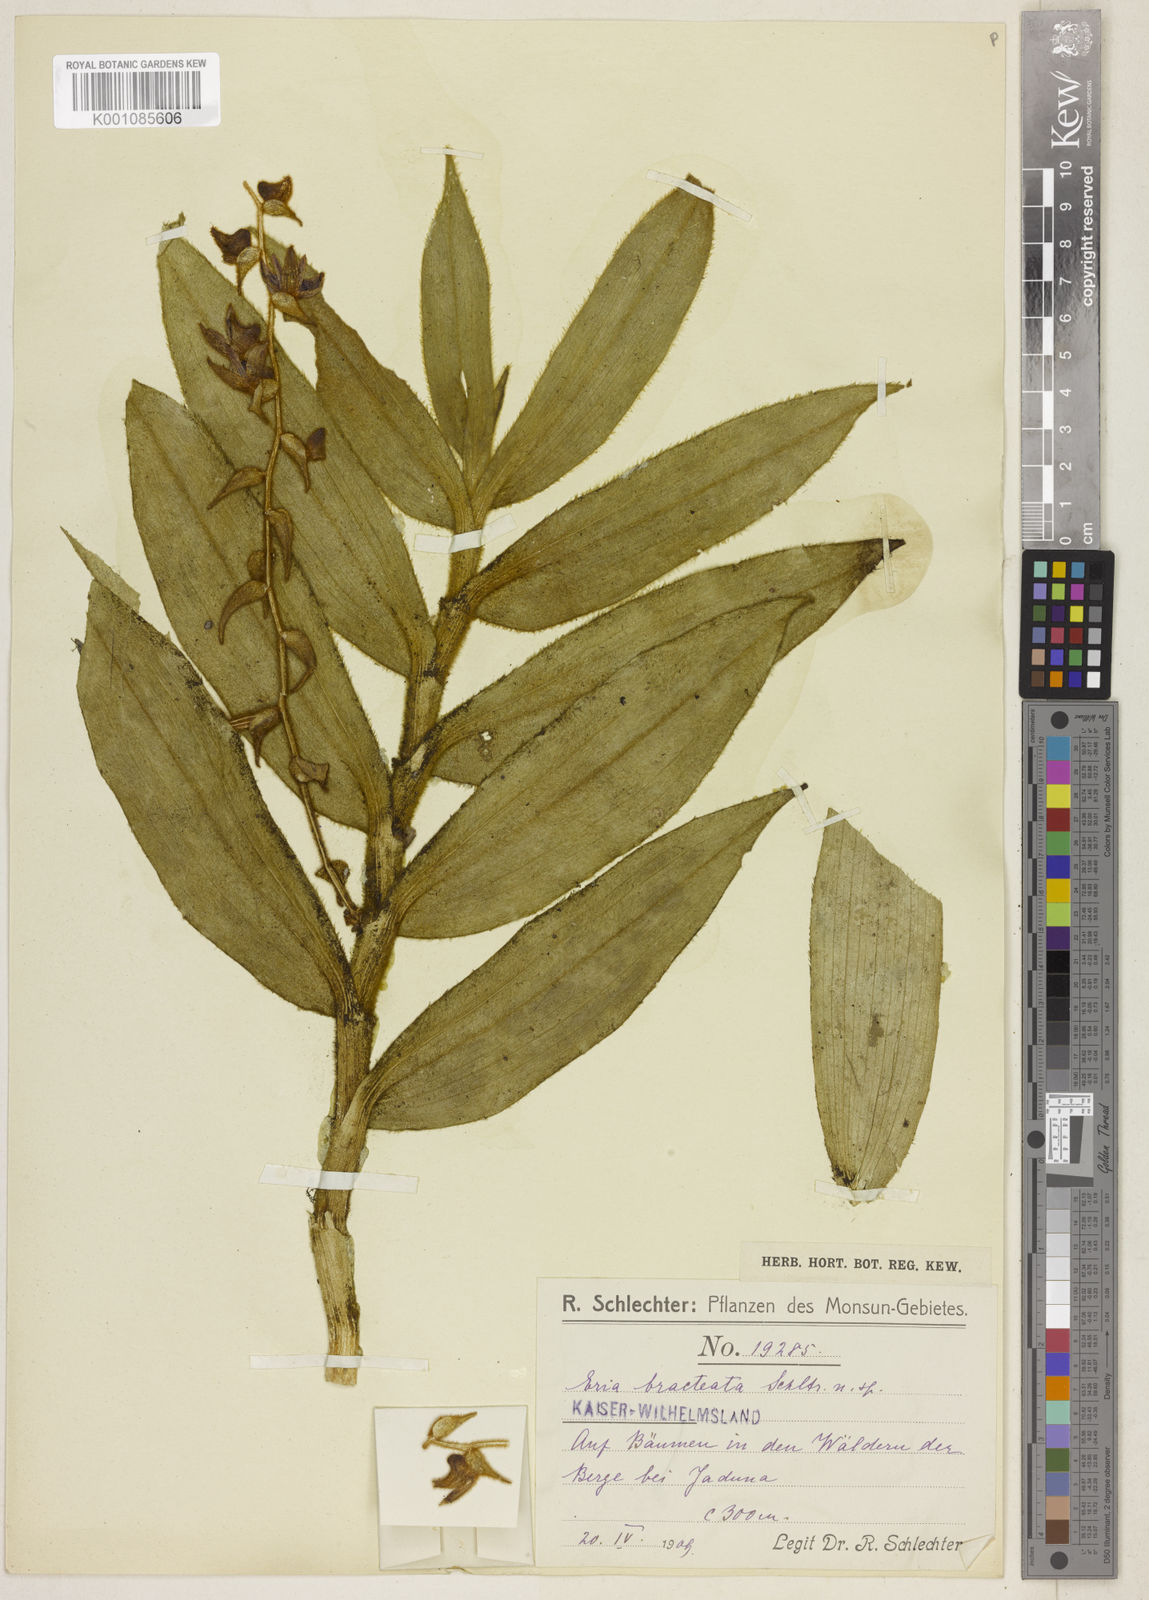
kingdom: Plantae
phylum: Tracheophyta
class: Liliopsida
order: Asparagales
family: Orchidaceae
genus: Trichotosia
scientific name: Trichotosia bracteata
